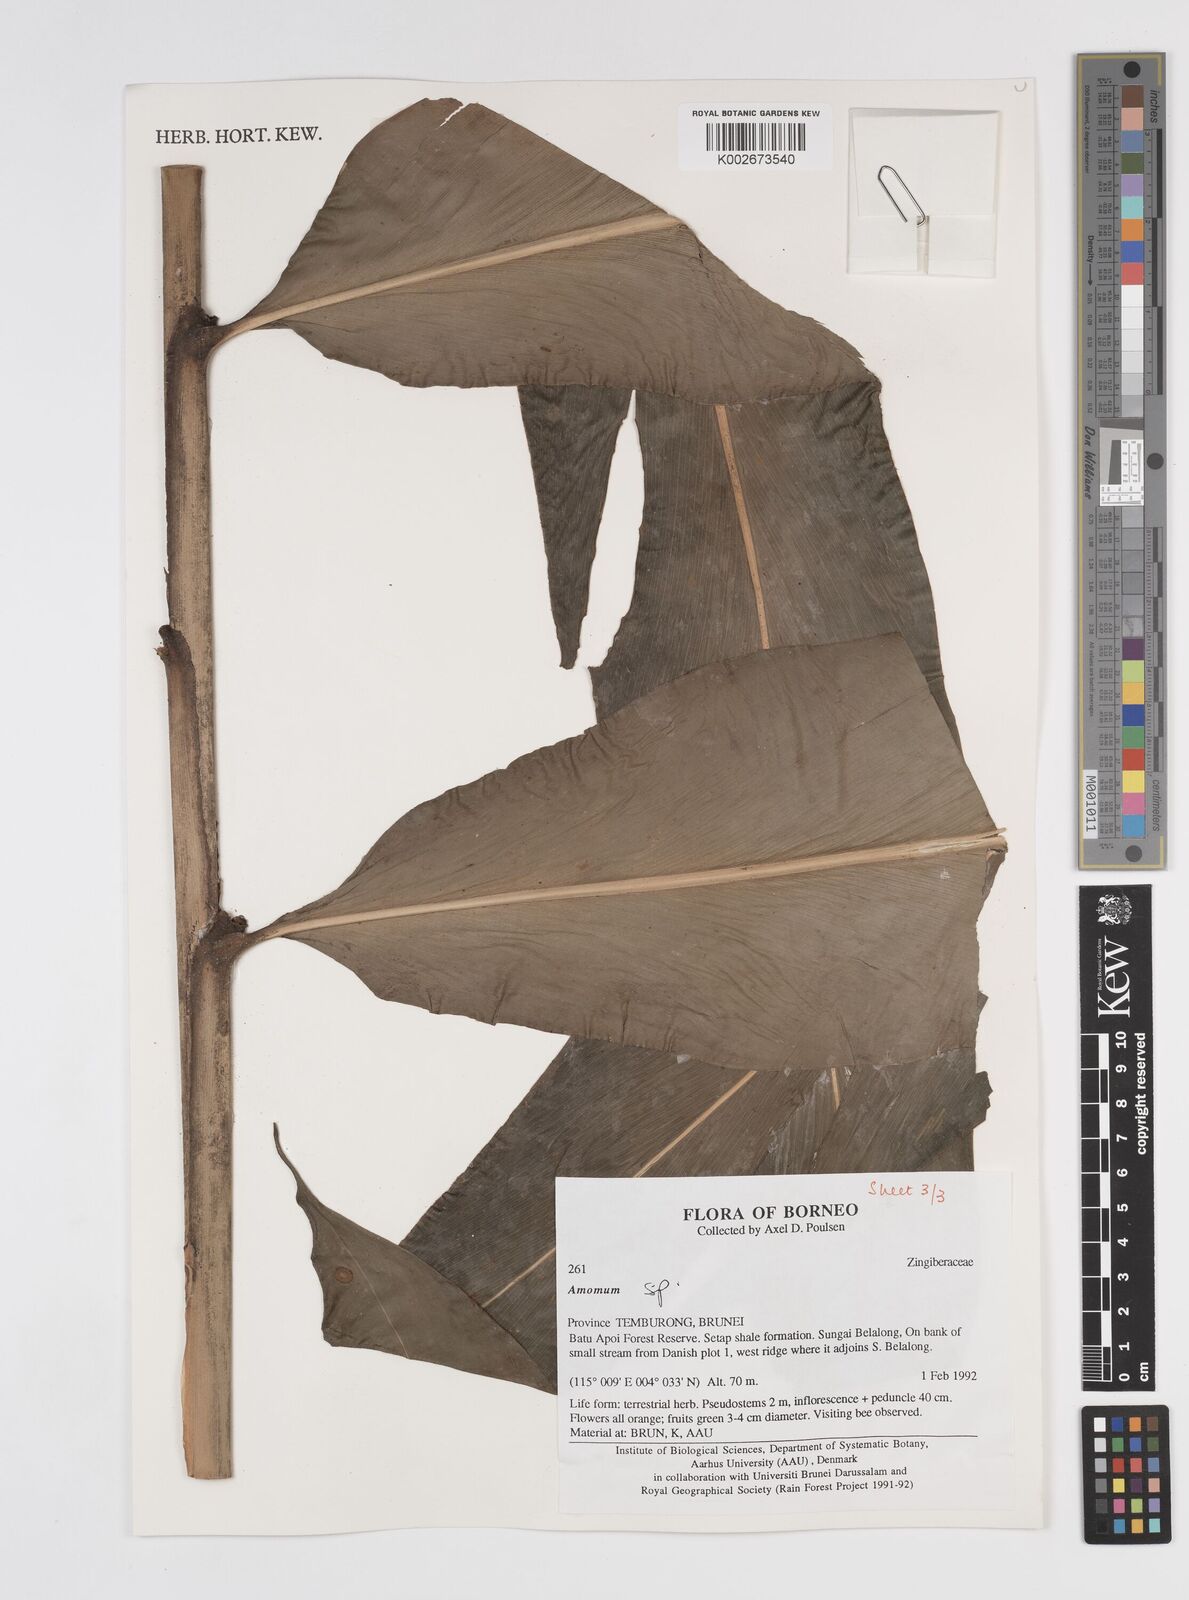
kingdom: Plantae
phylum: Tracheophyta
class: Liliopsida
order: Zingiberales
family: Zingiberaceae
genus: Amomum
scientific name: Amomum
